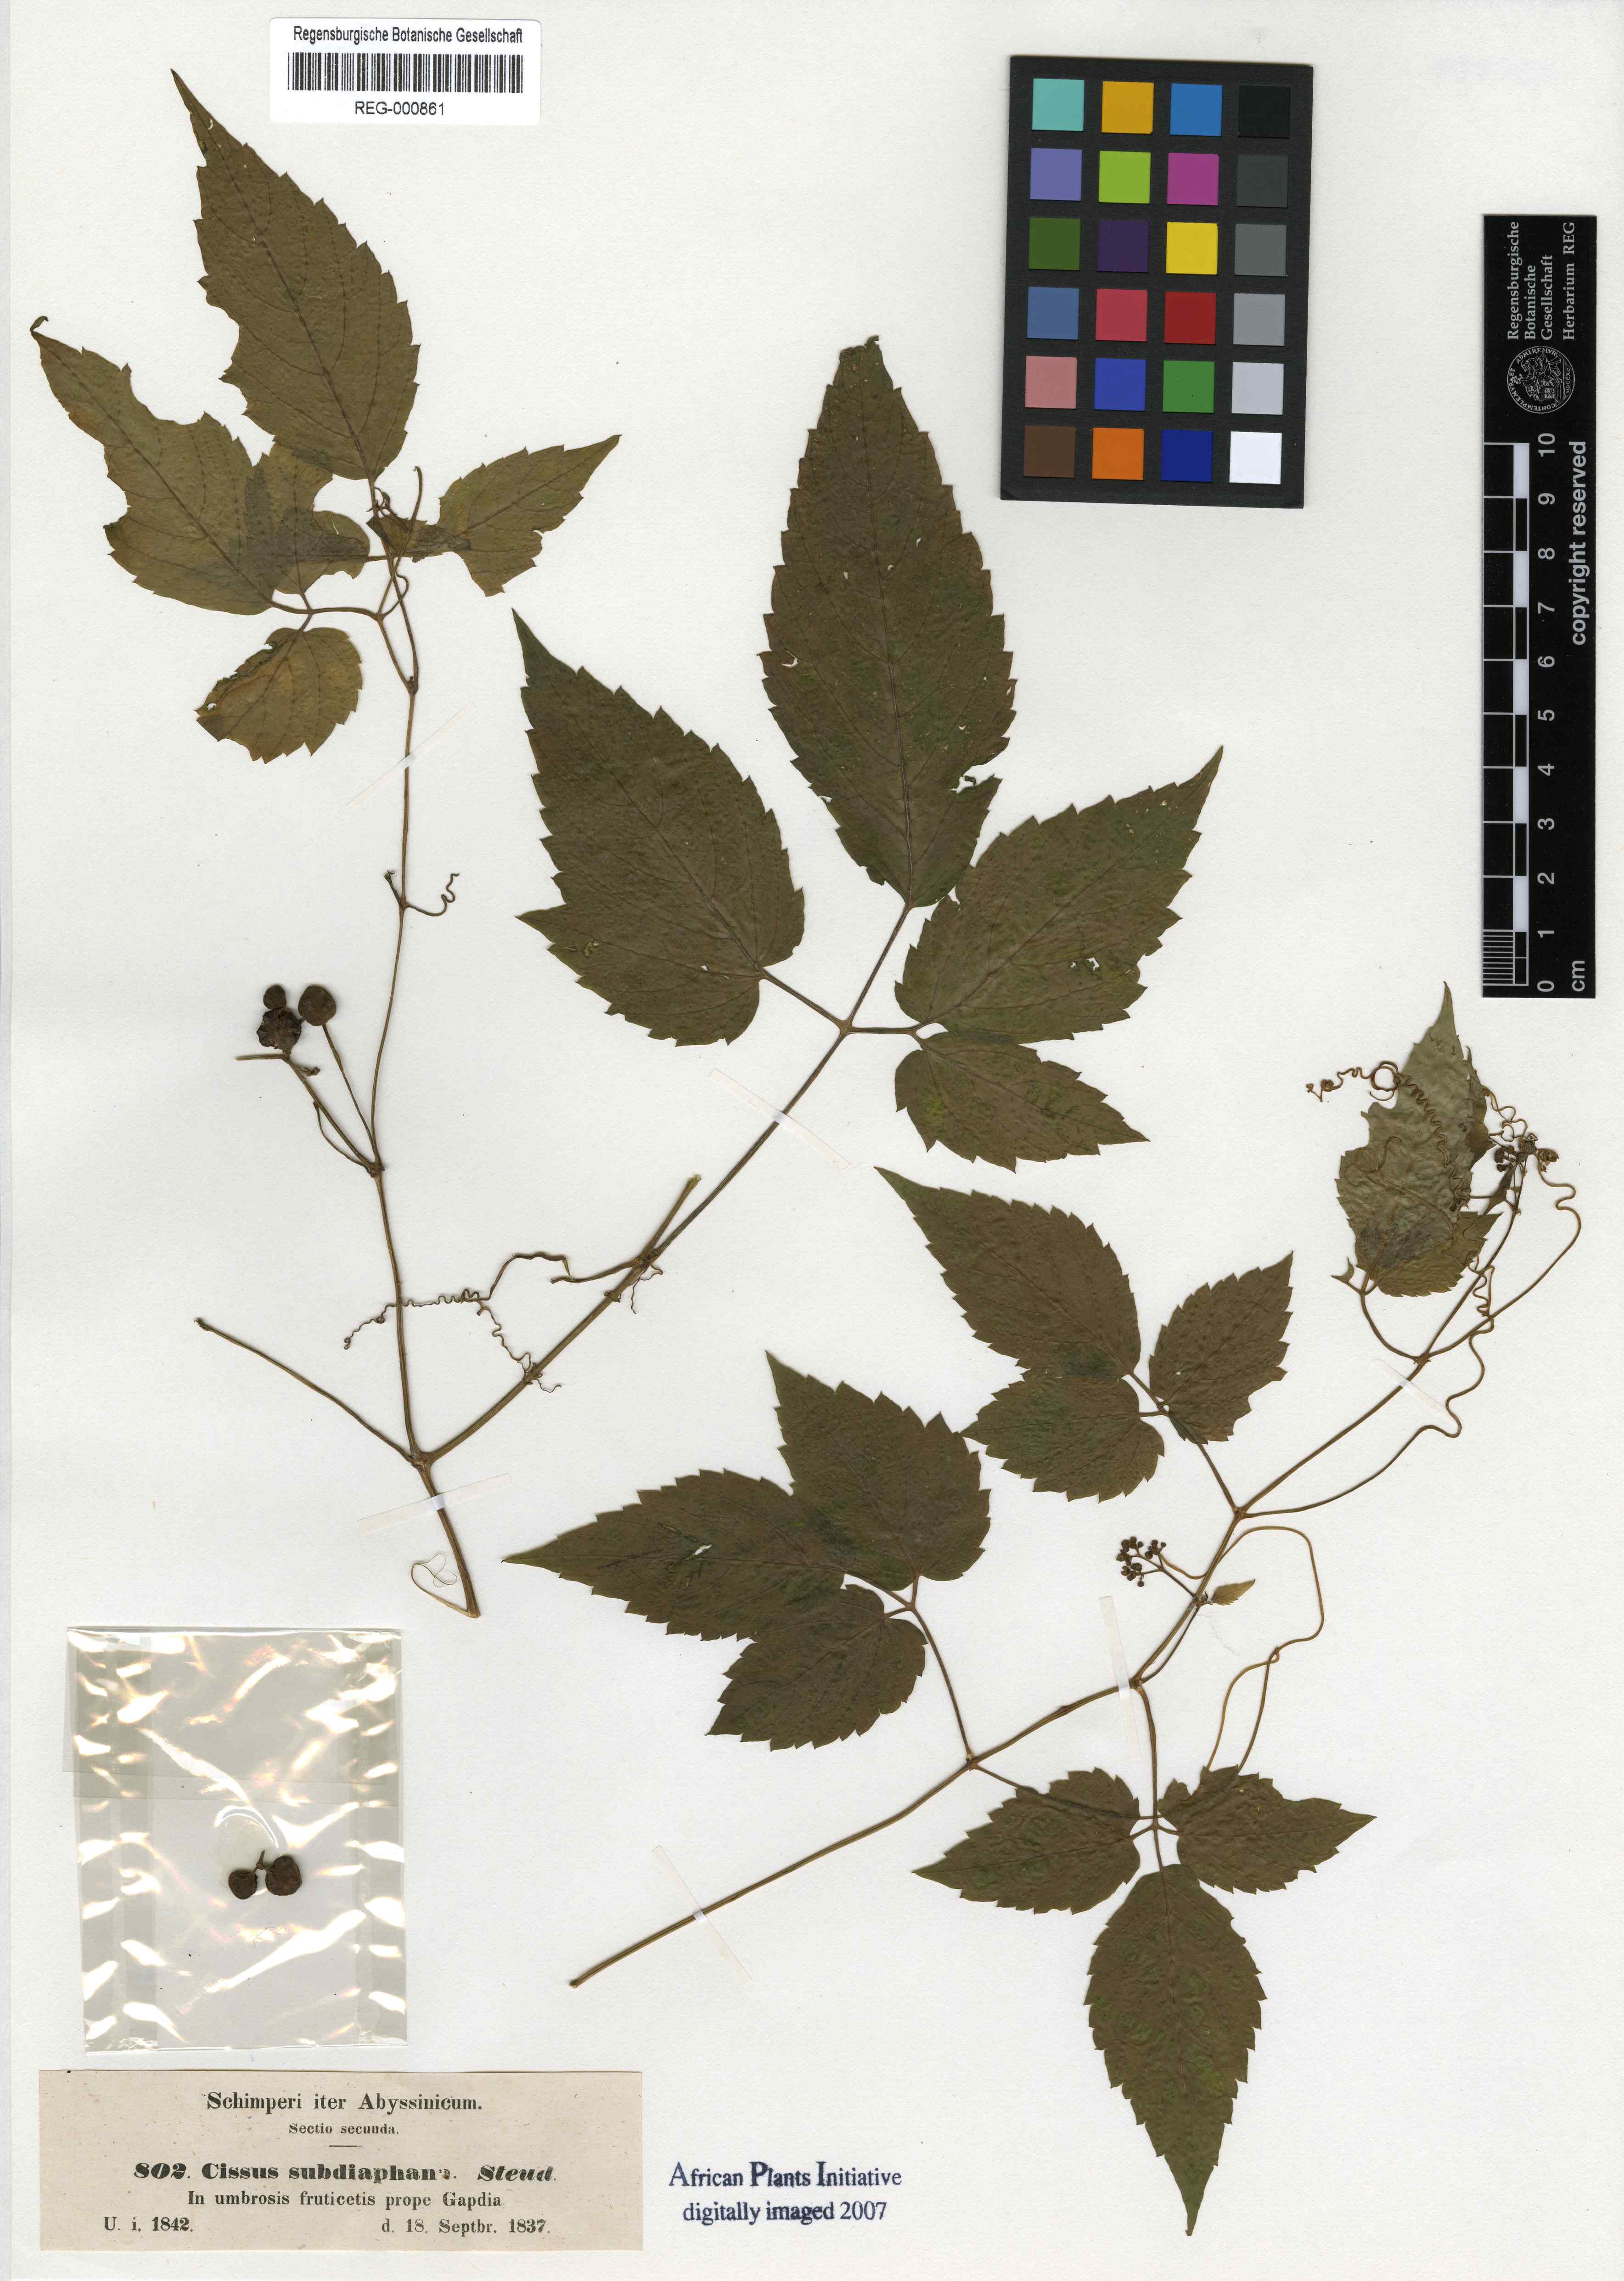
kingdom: Plantae
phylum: Tracheophyta
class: Magnoliopsida
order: Vitales
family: Vitaceae
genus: Afrocayratia
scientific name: Afrocayratia gracilis
